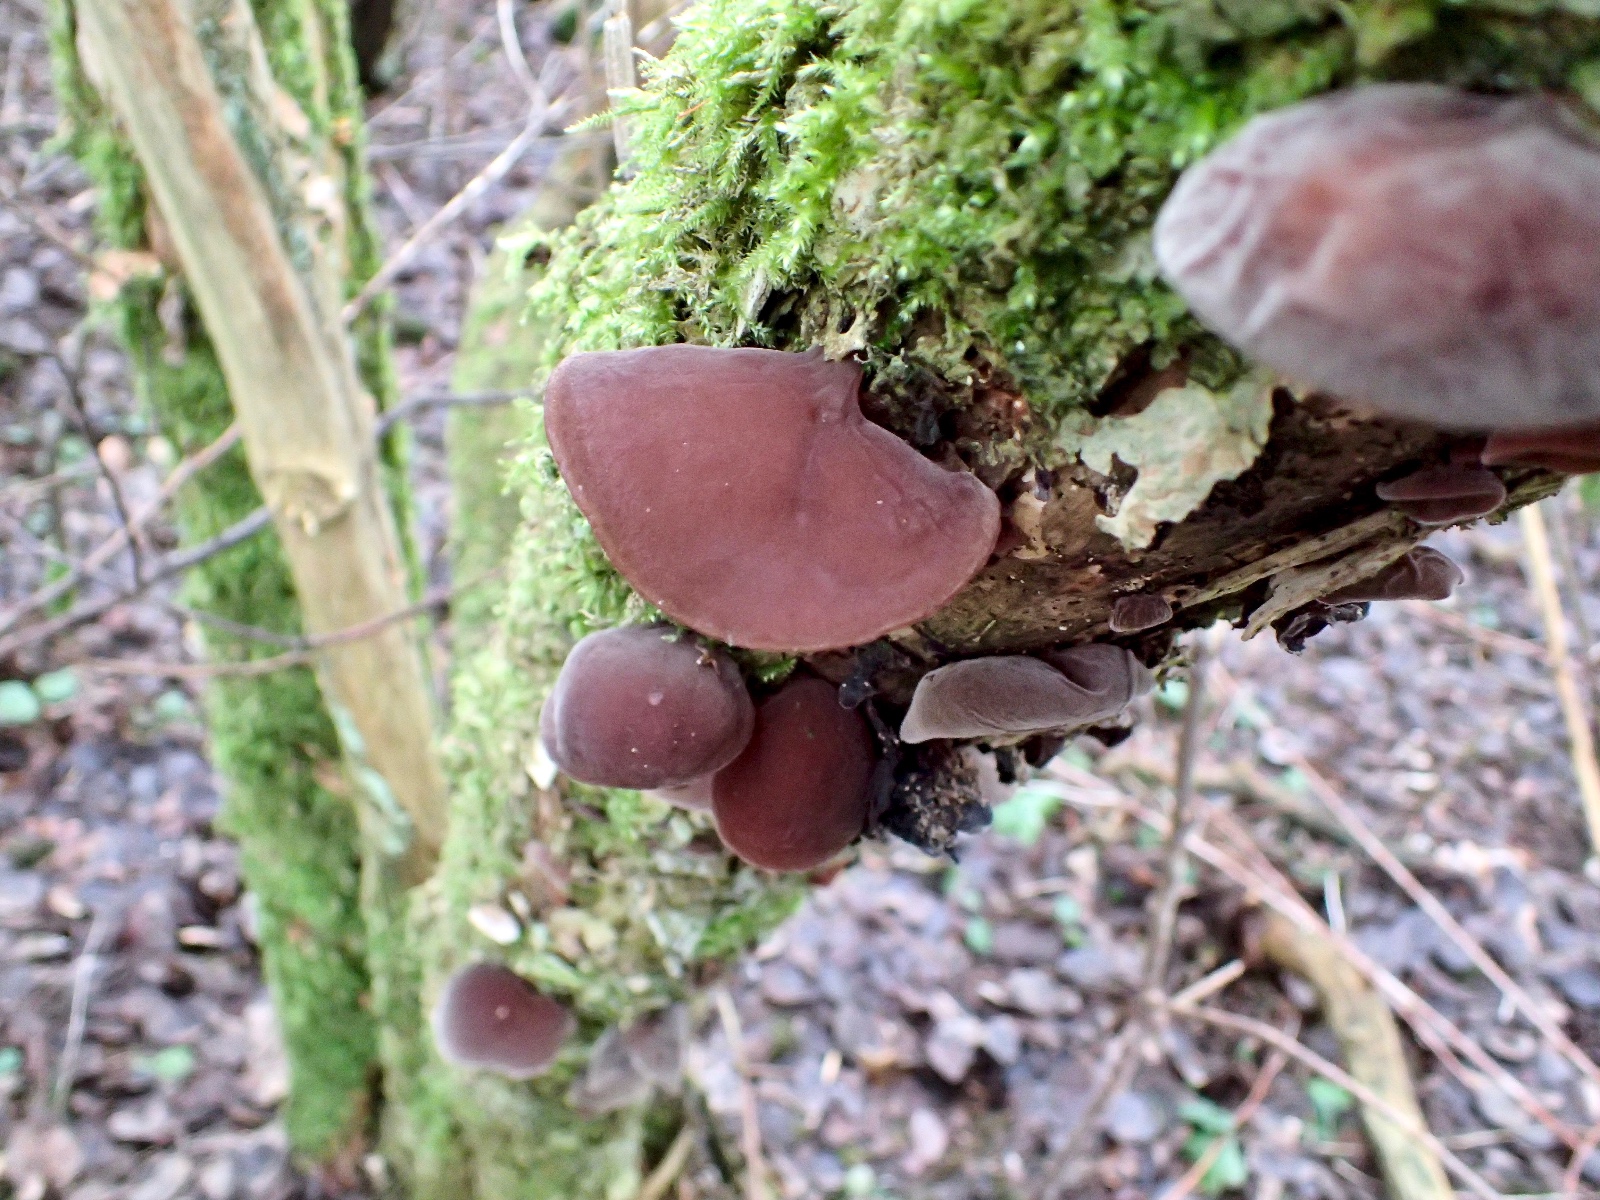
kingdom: Fungi
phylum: Basidiomycota
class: Agaricomycetes
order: Auriculariales
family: Auriculariaceae
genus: Auricularia
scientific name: Auricularia auricula-judae
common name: almindelig judasøre
